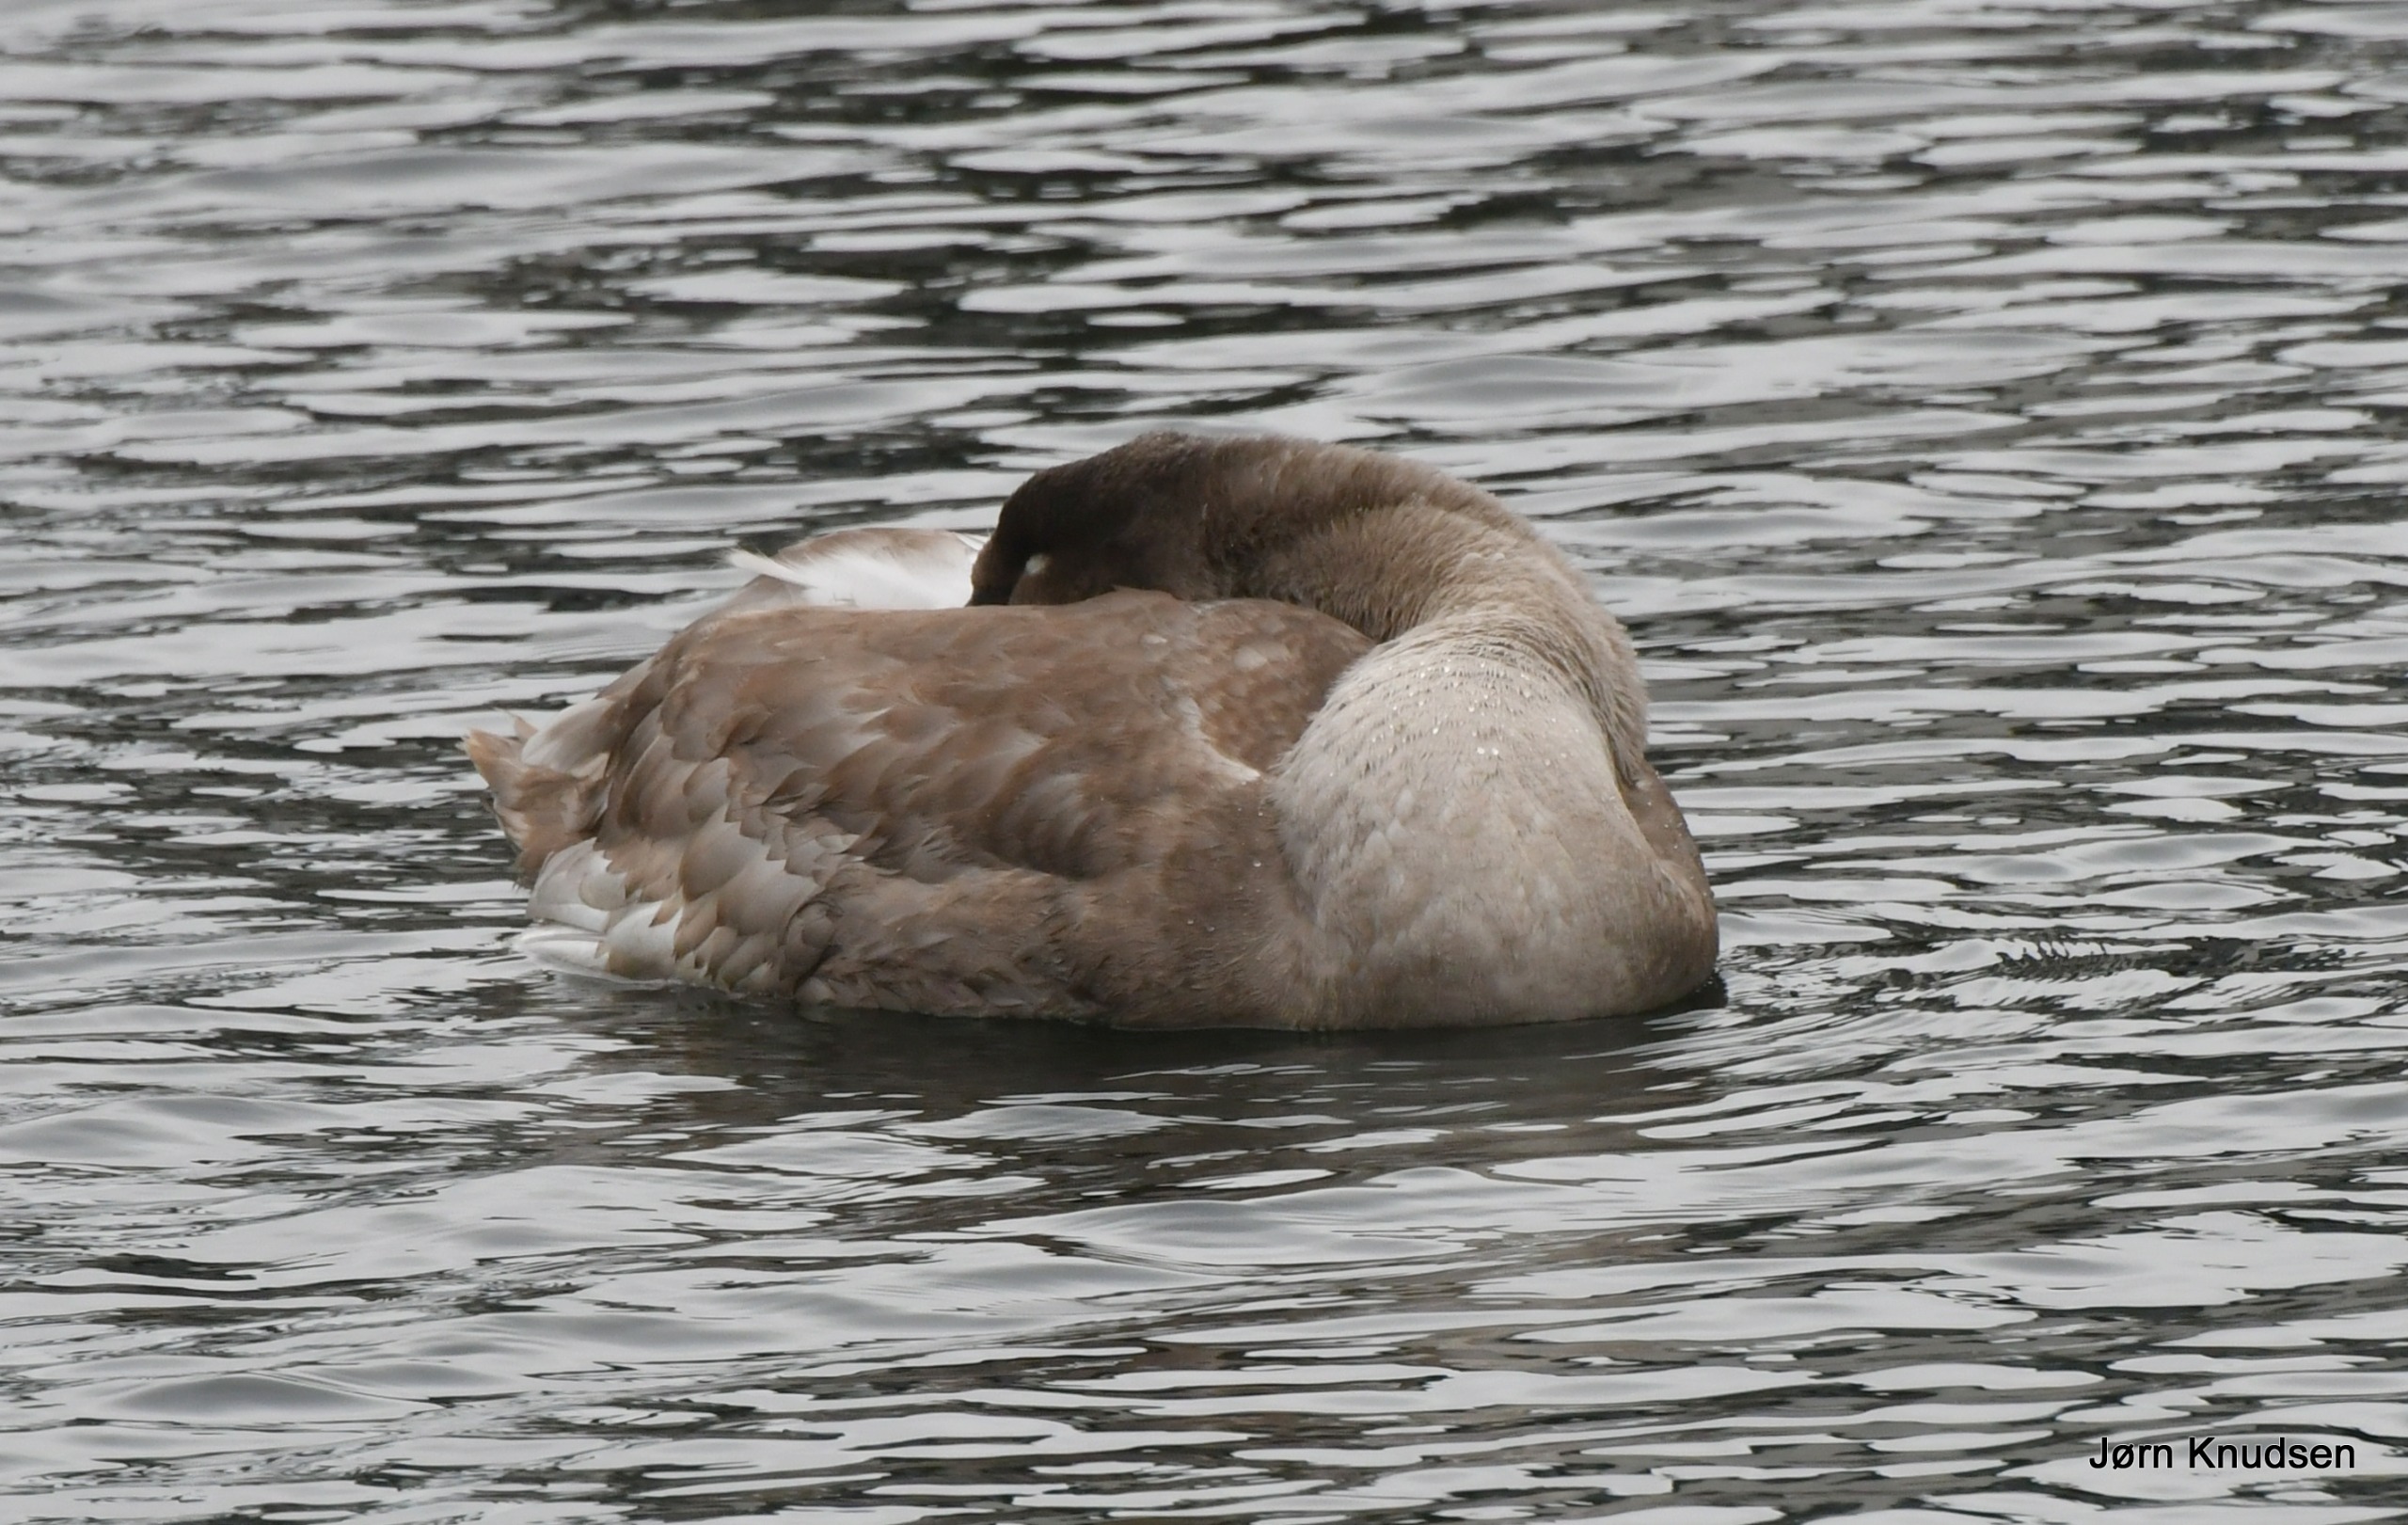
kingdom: Animalia
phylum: Chordata
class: Aves
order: Anseriformes
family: Anatidae
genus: Cygnus
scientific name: Cygnus olor
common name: Knopsvane
